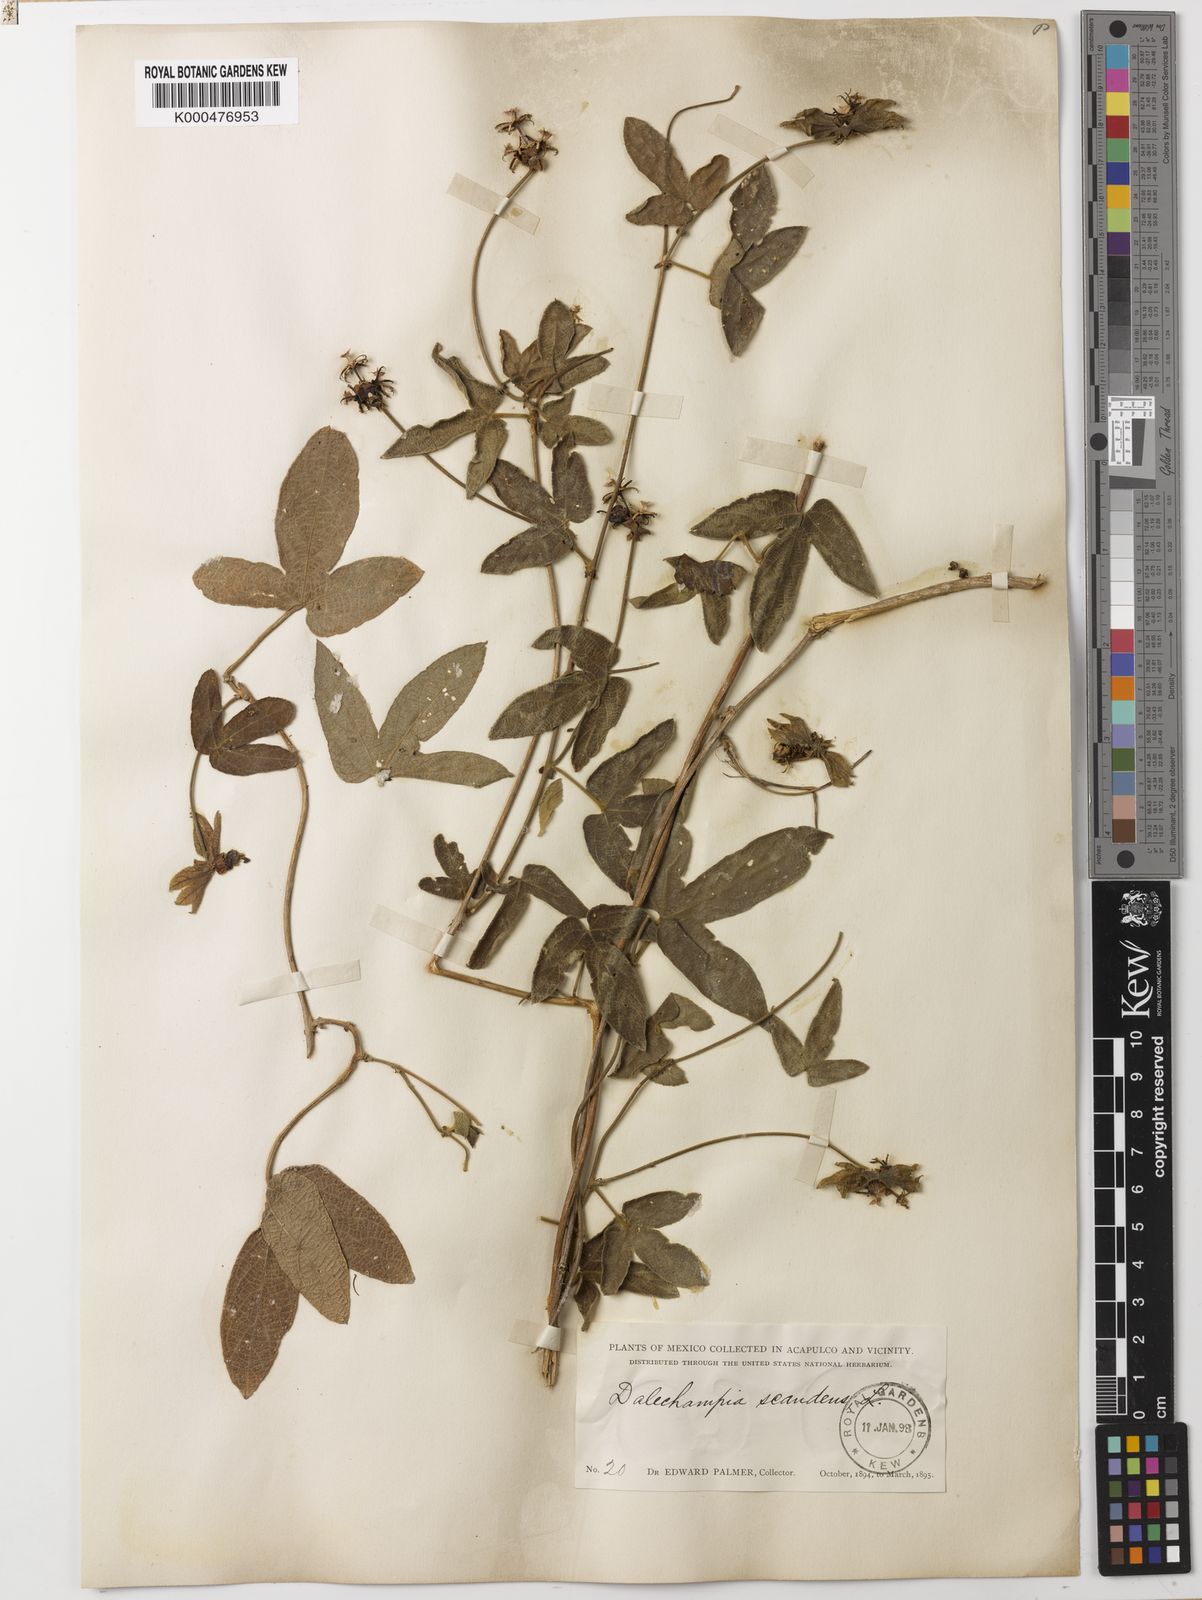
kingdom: Plantae
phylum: Tracheophyta
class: Magnoliopsida
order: Malpighiales
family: Euphorbiaceae
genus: Dalechampia
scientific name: Dalechampia scandens
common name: Spurgecreeper
